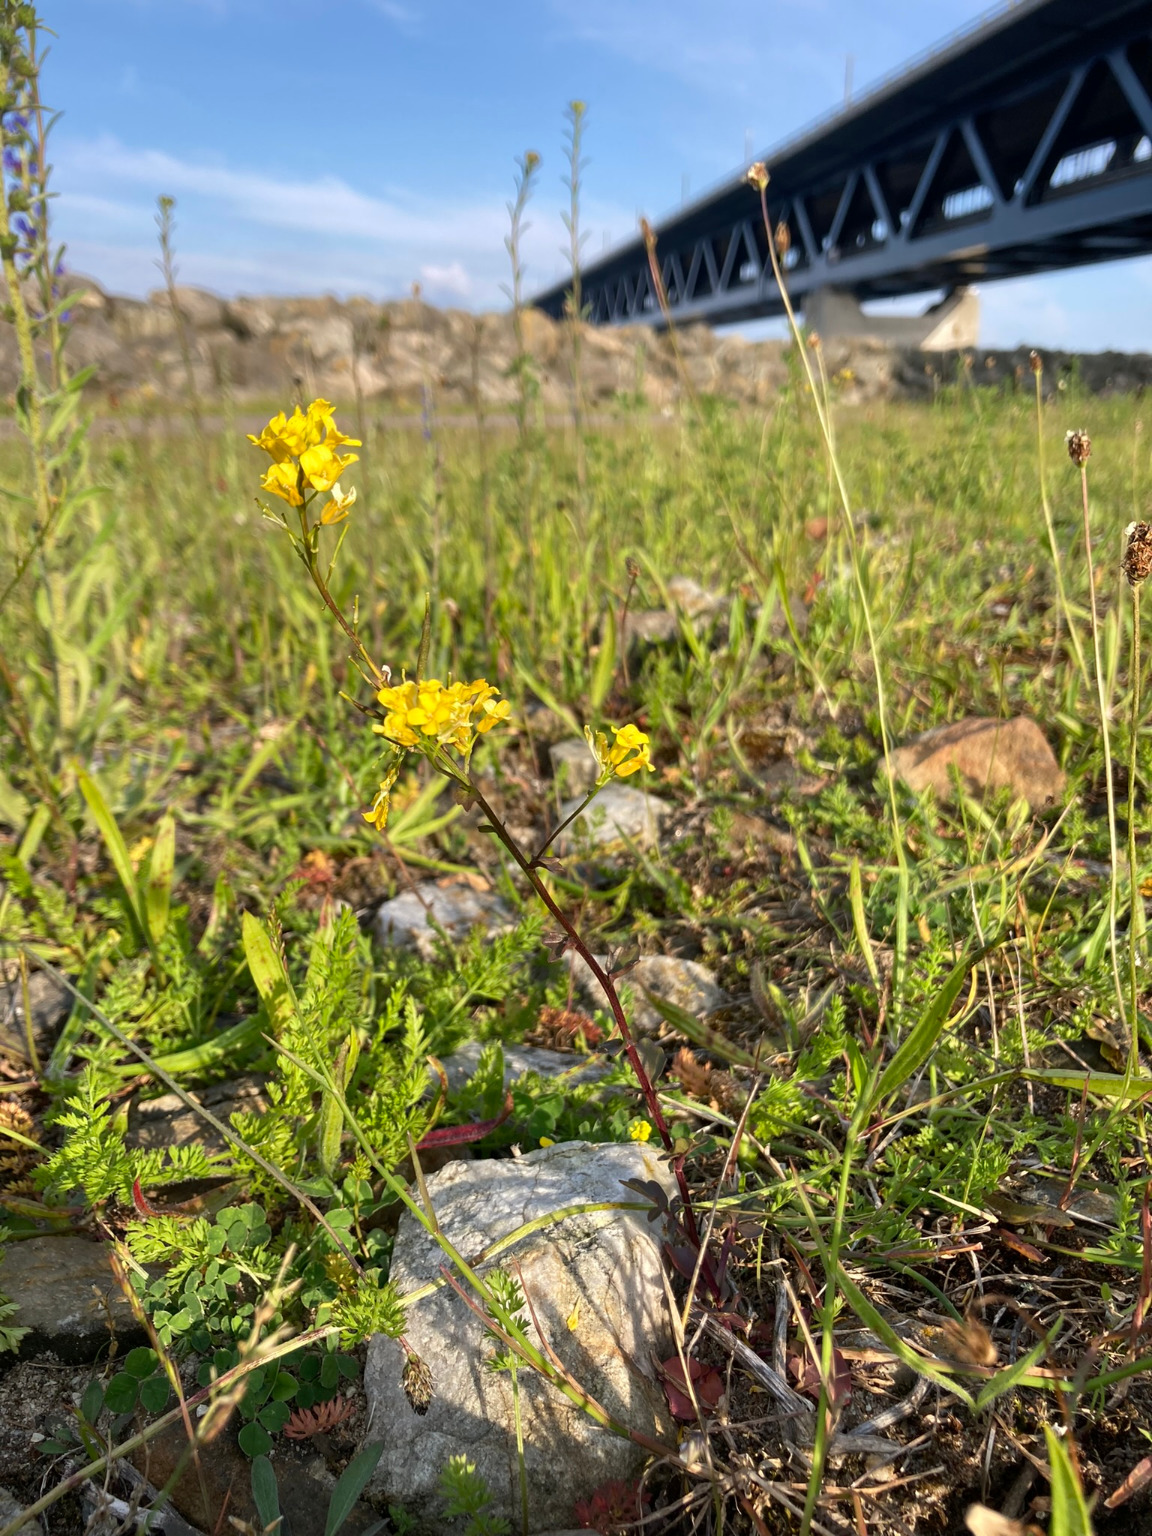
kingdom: Plantae
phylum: Tracheophyta
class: Magnoliopsida
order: Brassicales
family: Brassicaceae
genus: Barbarea
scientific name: Barbarea vulgaris
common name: Udspærret vinterkarse
